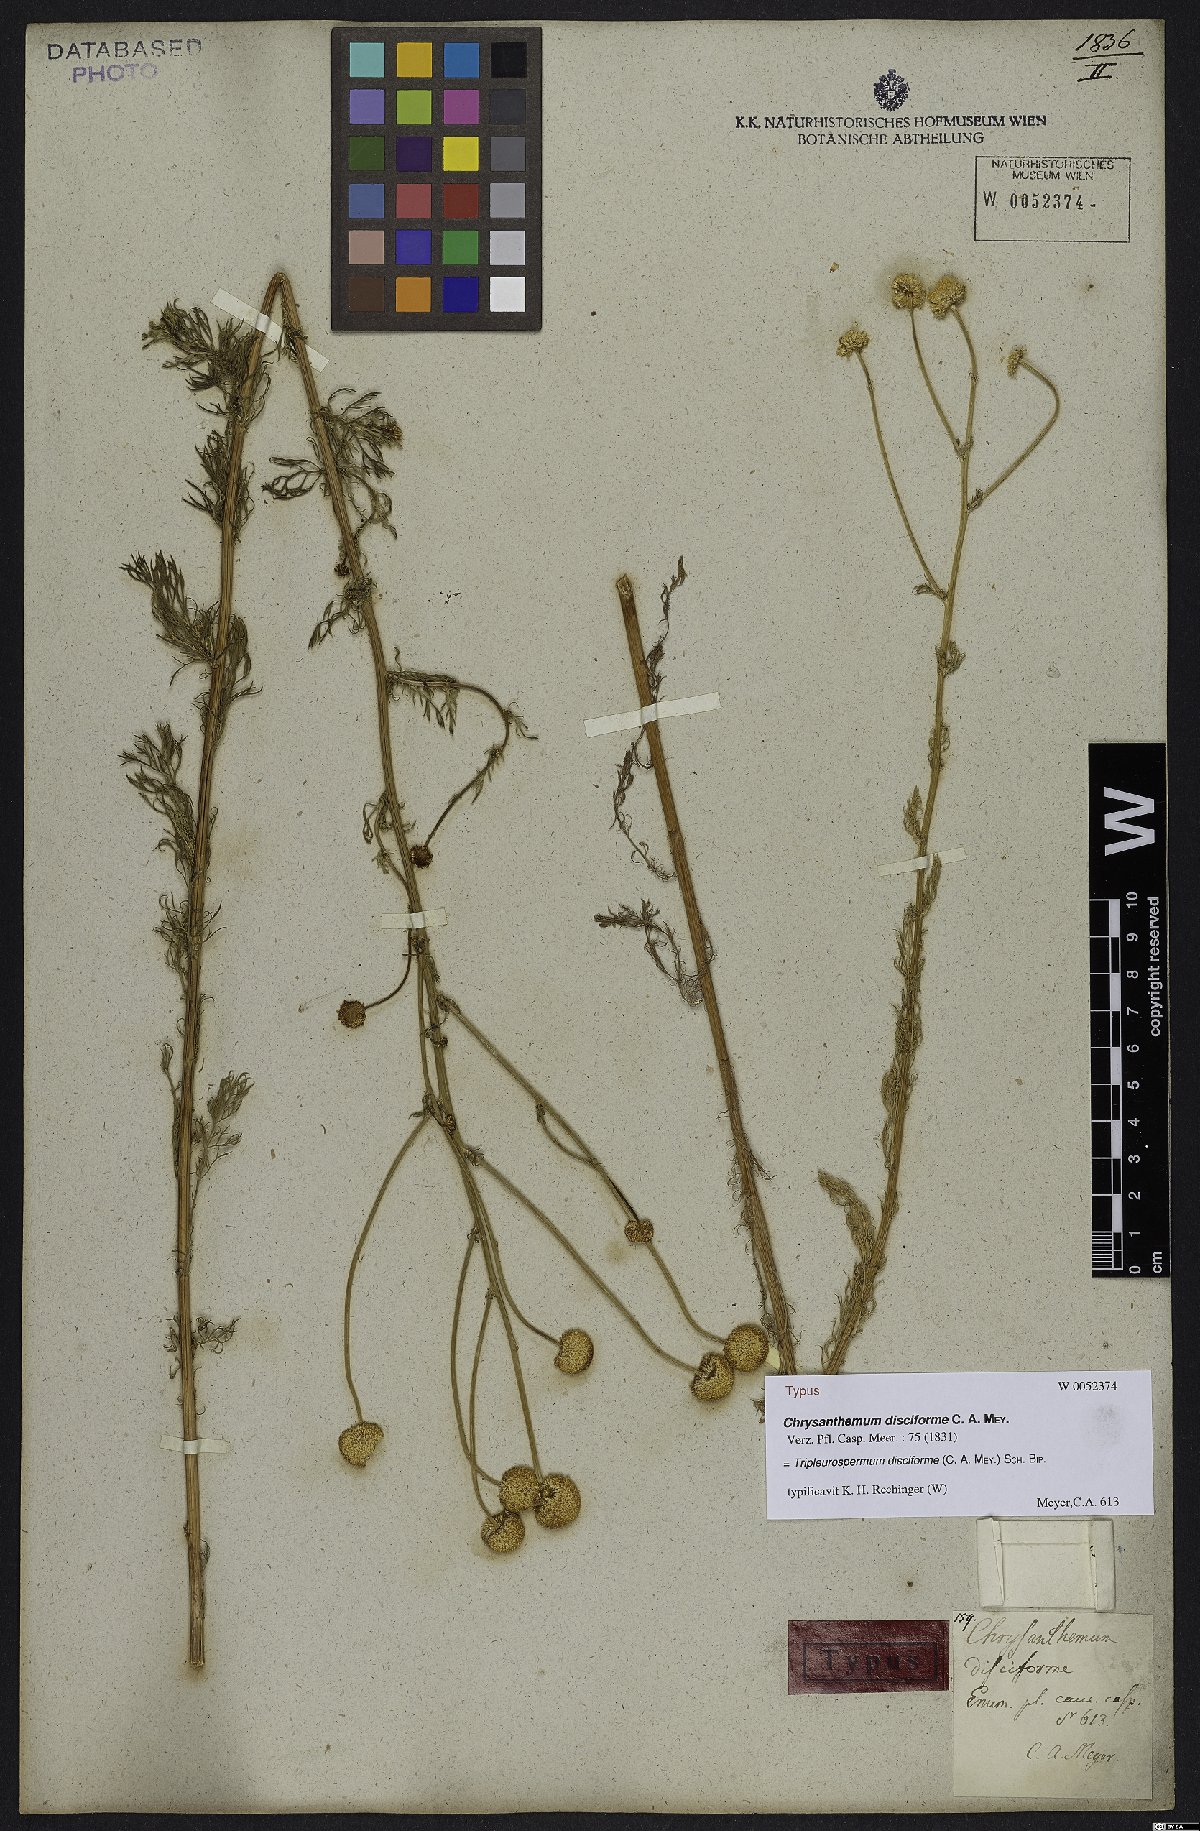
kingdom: Plantae
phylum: Tracheophyta
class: Magnoliopsida
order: Asterales
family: Asteraceae
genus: Tripleurospermum
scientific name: Tripleurospermum disciforme
